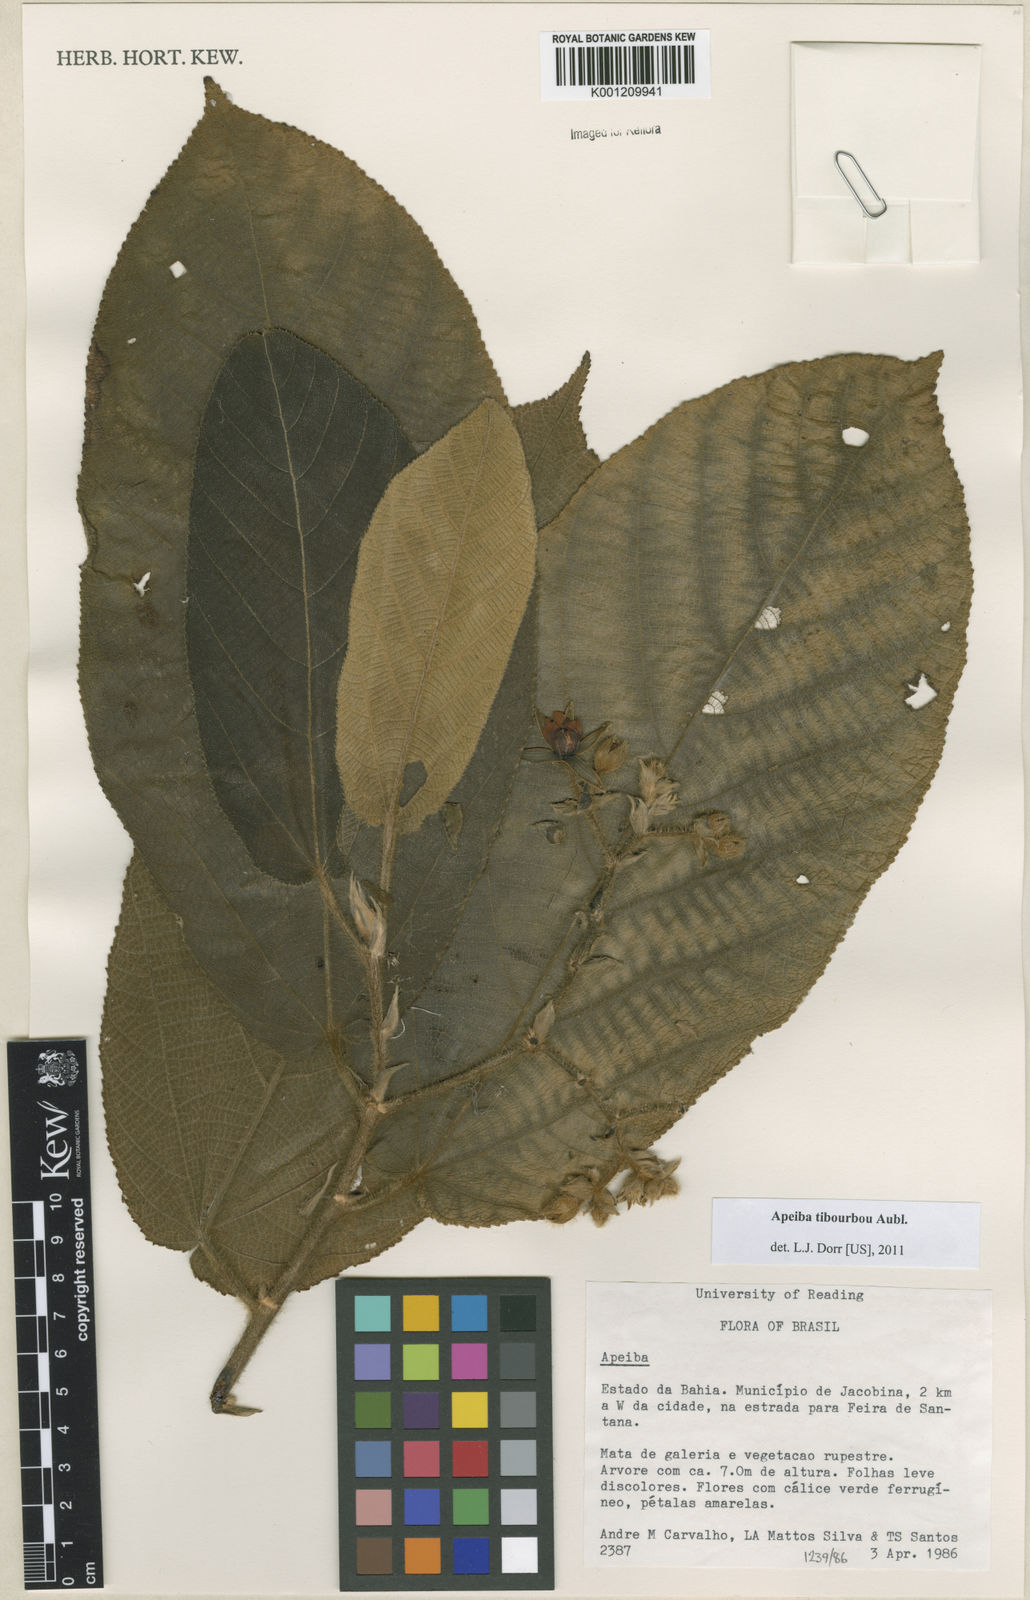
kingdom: Plantae
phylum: Tracheophyta
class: Magnoliopsida
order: Malvales
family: Malvaceae
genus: Apeiba
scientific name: Apeiba tibourbou
